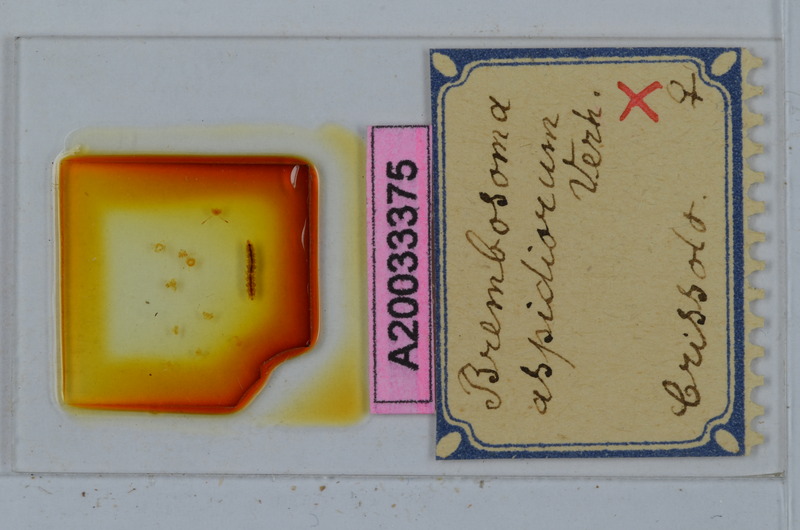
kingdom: Animalia
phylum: Arthropoda
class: Diplopoda
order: Polydesmida
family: Polydesmidae
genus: Brembosoma
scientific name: Brembosoma aspidiorum
